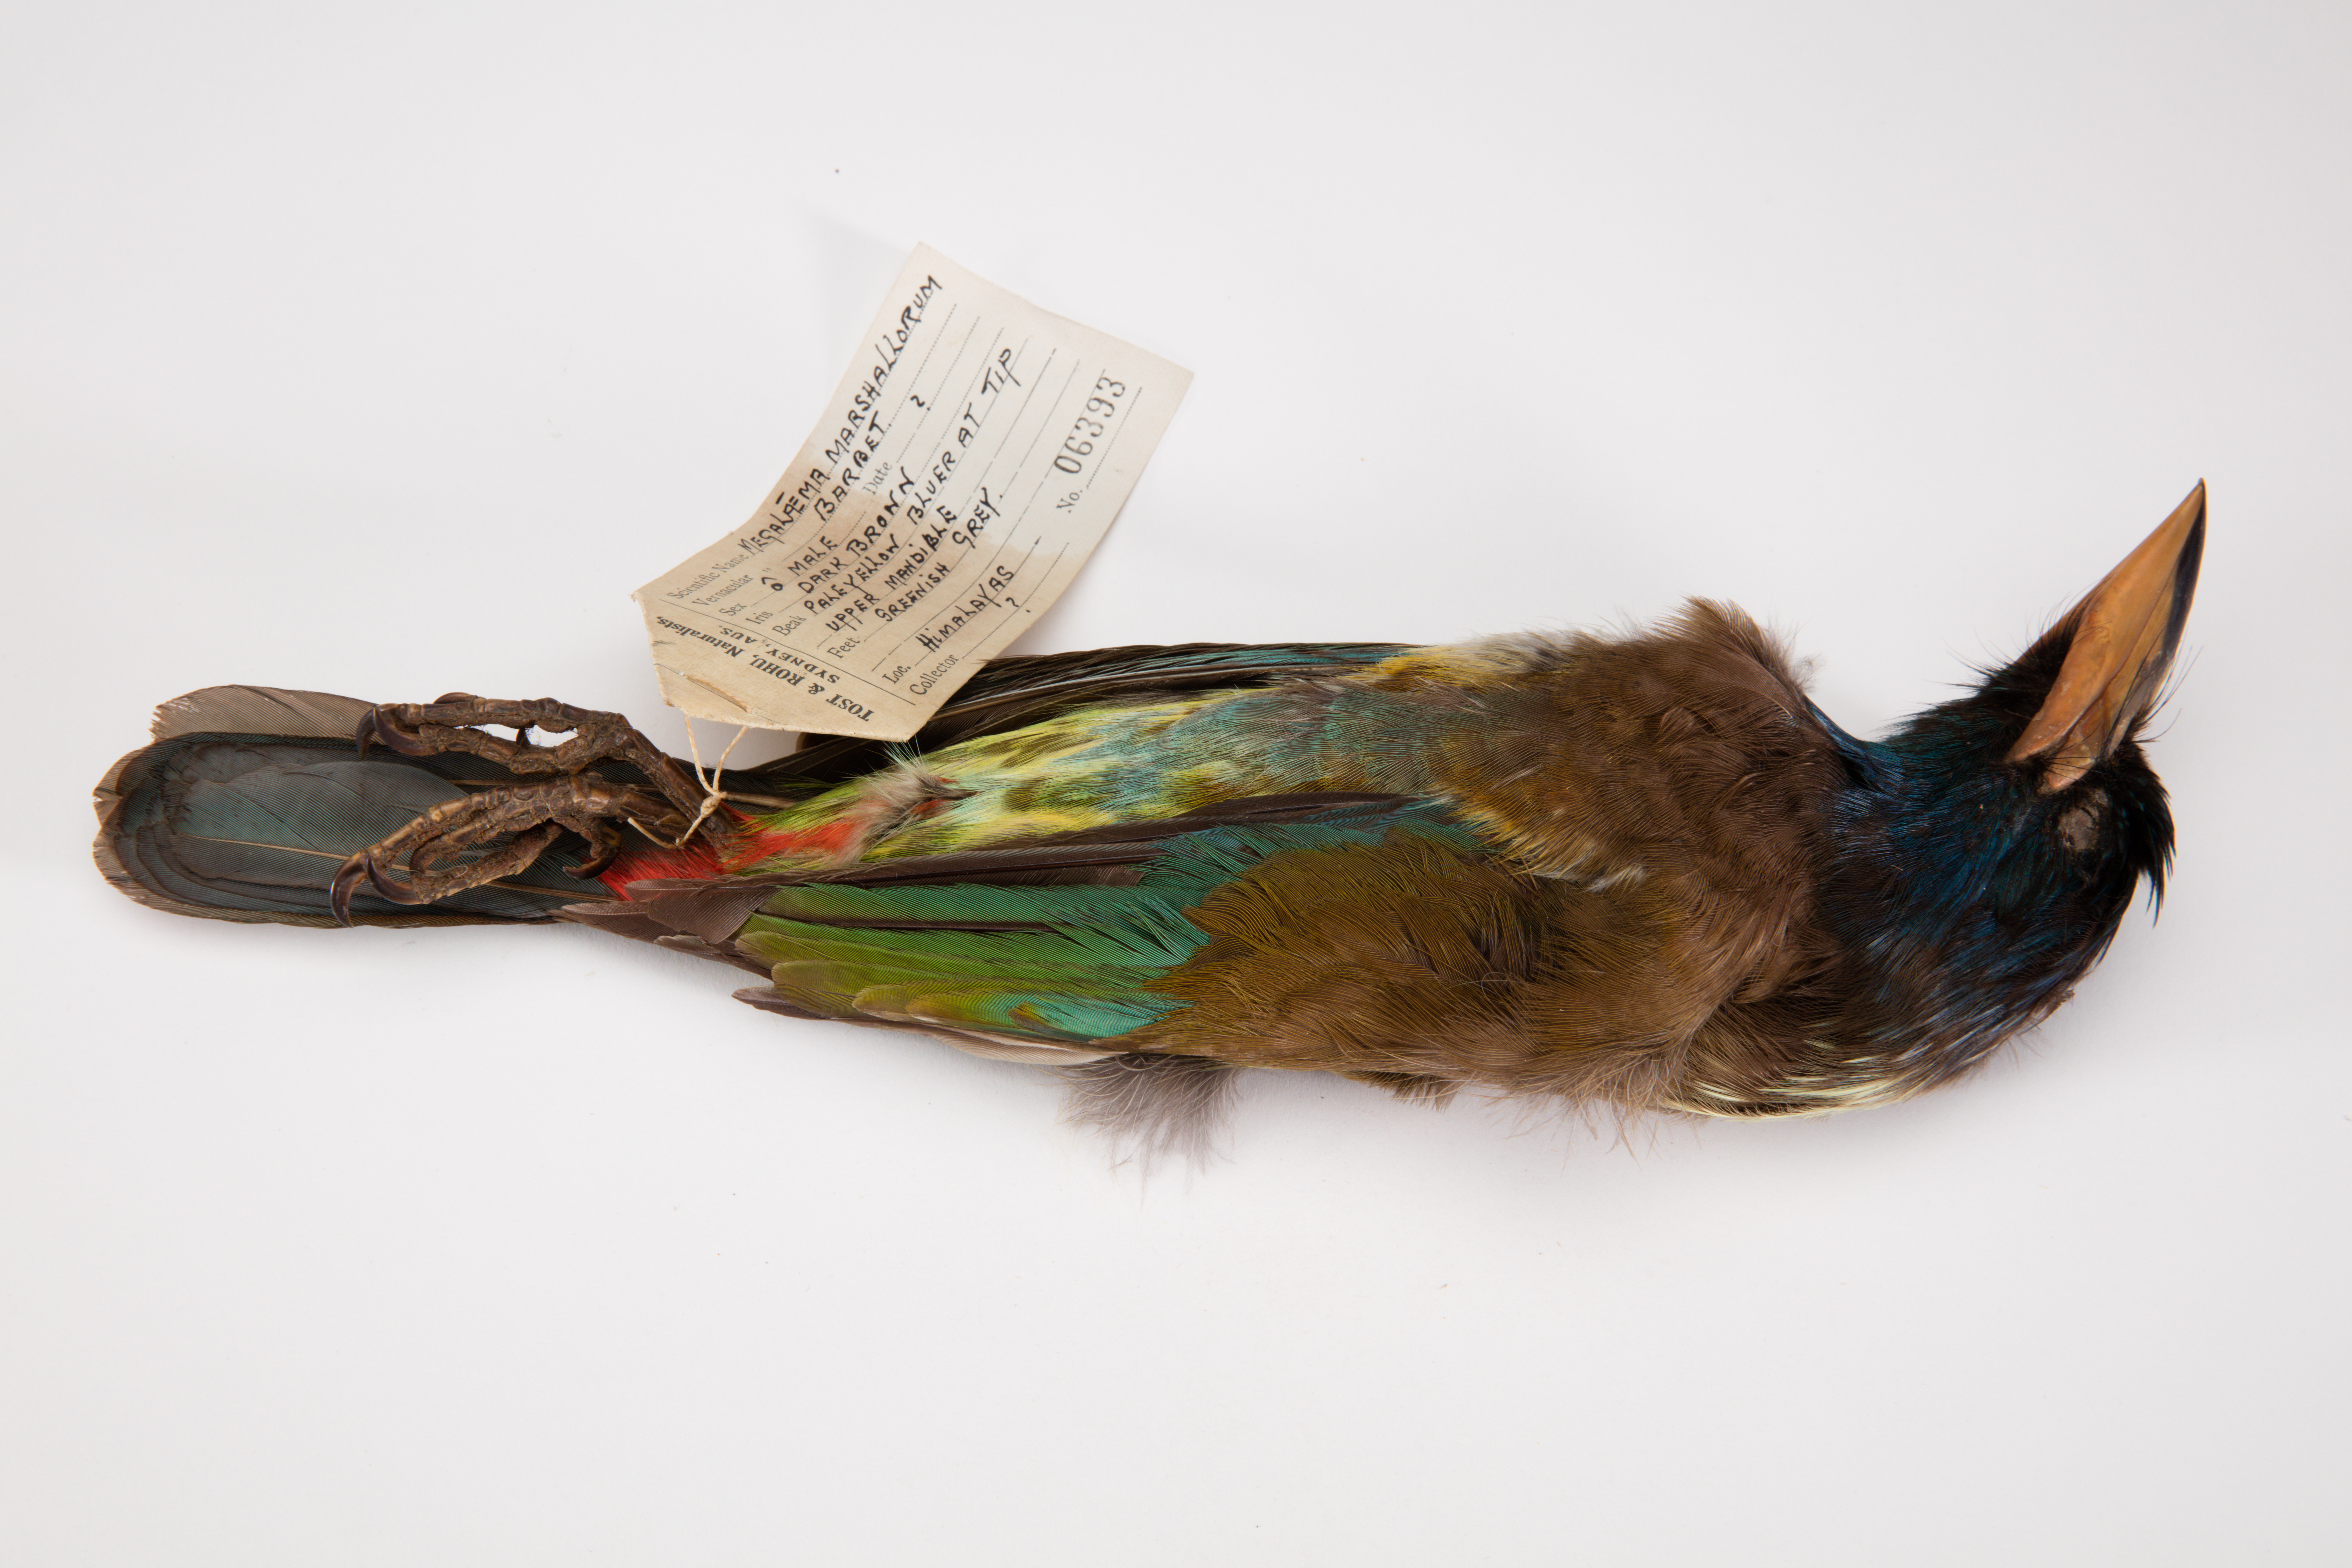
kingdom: Animalia
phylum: Chordata
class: Aves
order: Piciformes
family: Megalaimidae
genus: Psilopogon
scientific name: Psilopogon virens
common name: Great barbet
